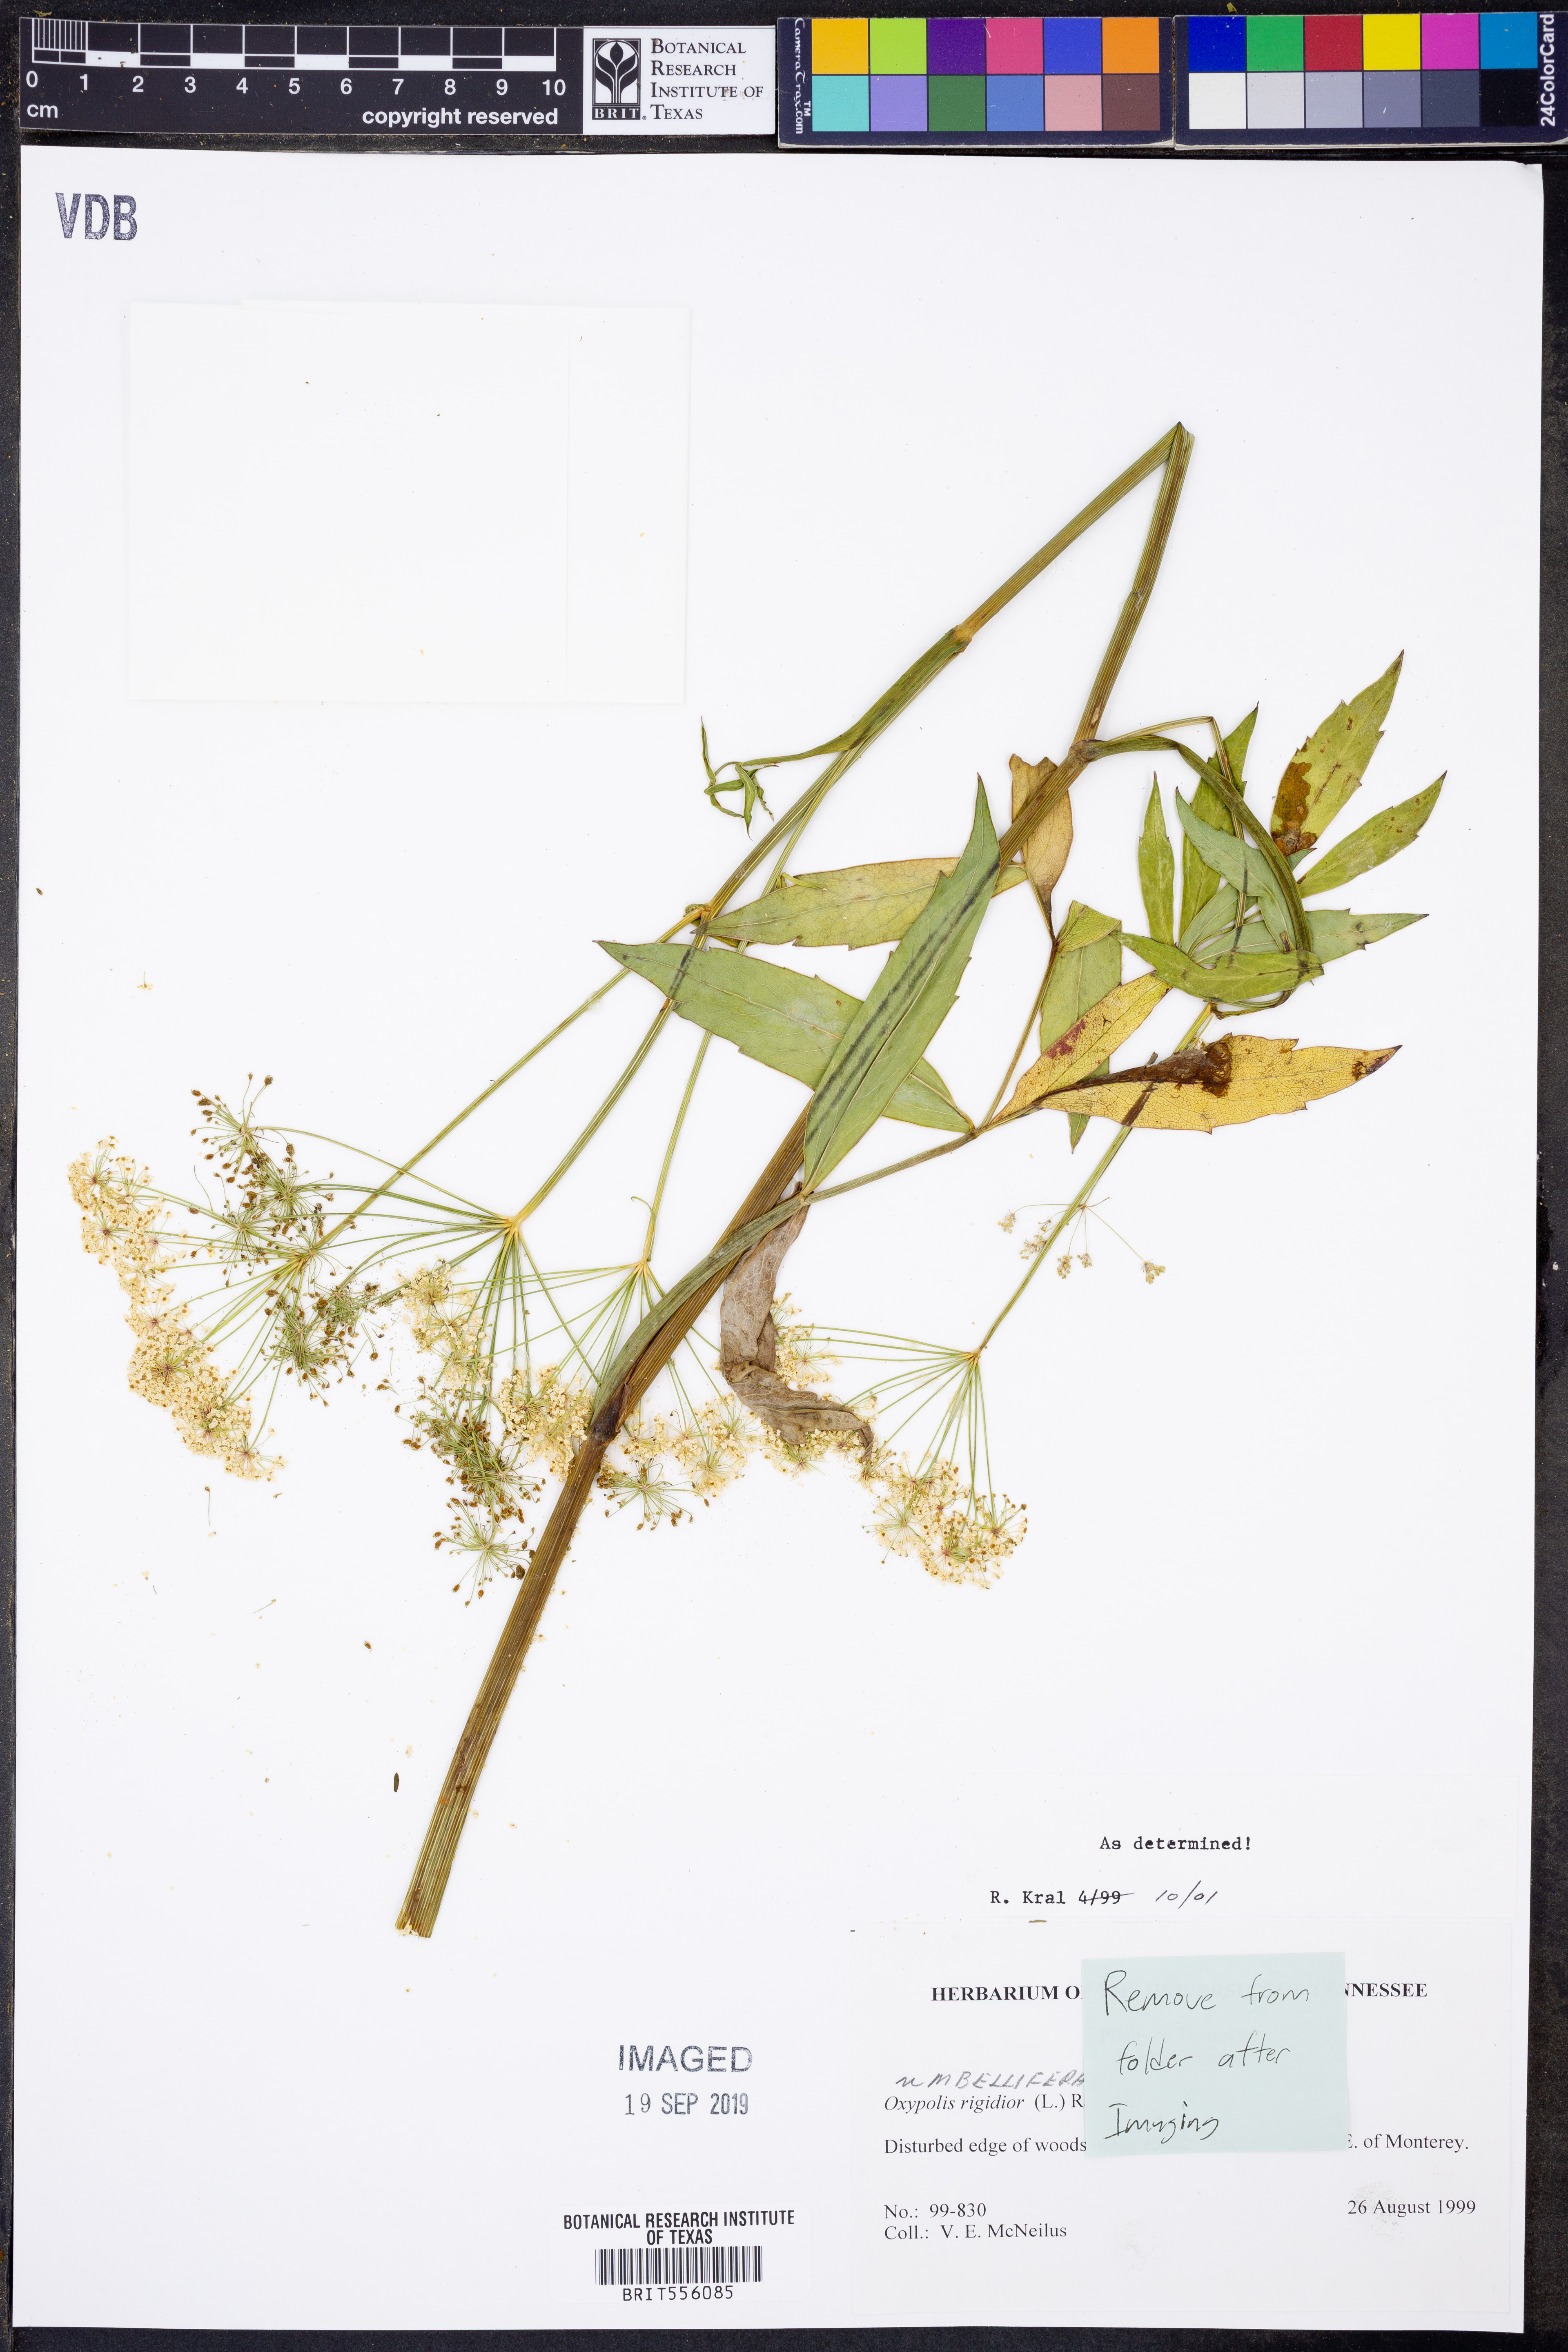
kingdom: Plantae
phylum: Tracheophyta
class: Magnoliopsida
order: Apiales
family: Apiaceae
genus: Oxypolis
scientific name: Oxypolis rigidior
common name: Cowbane
